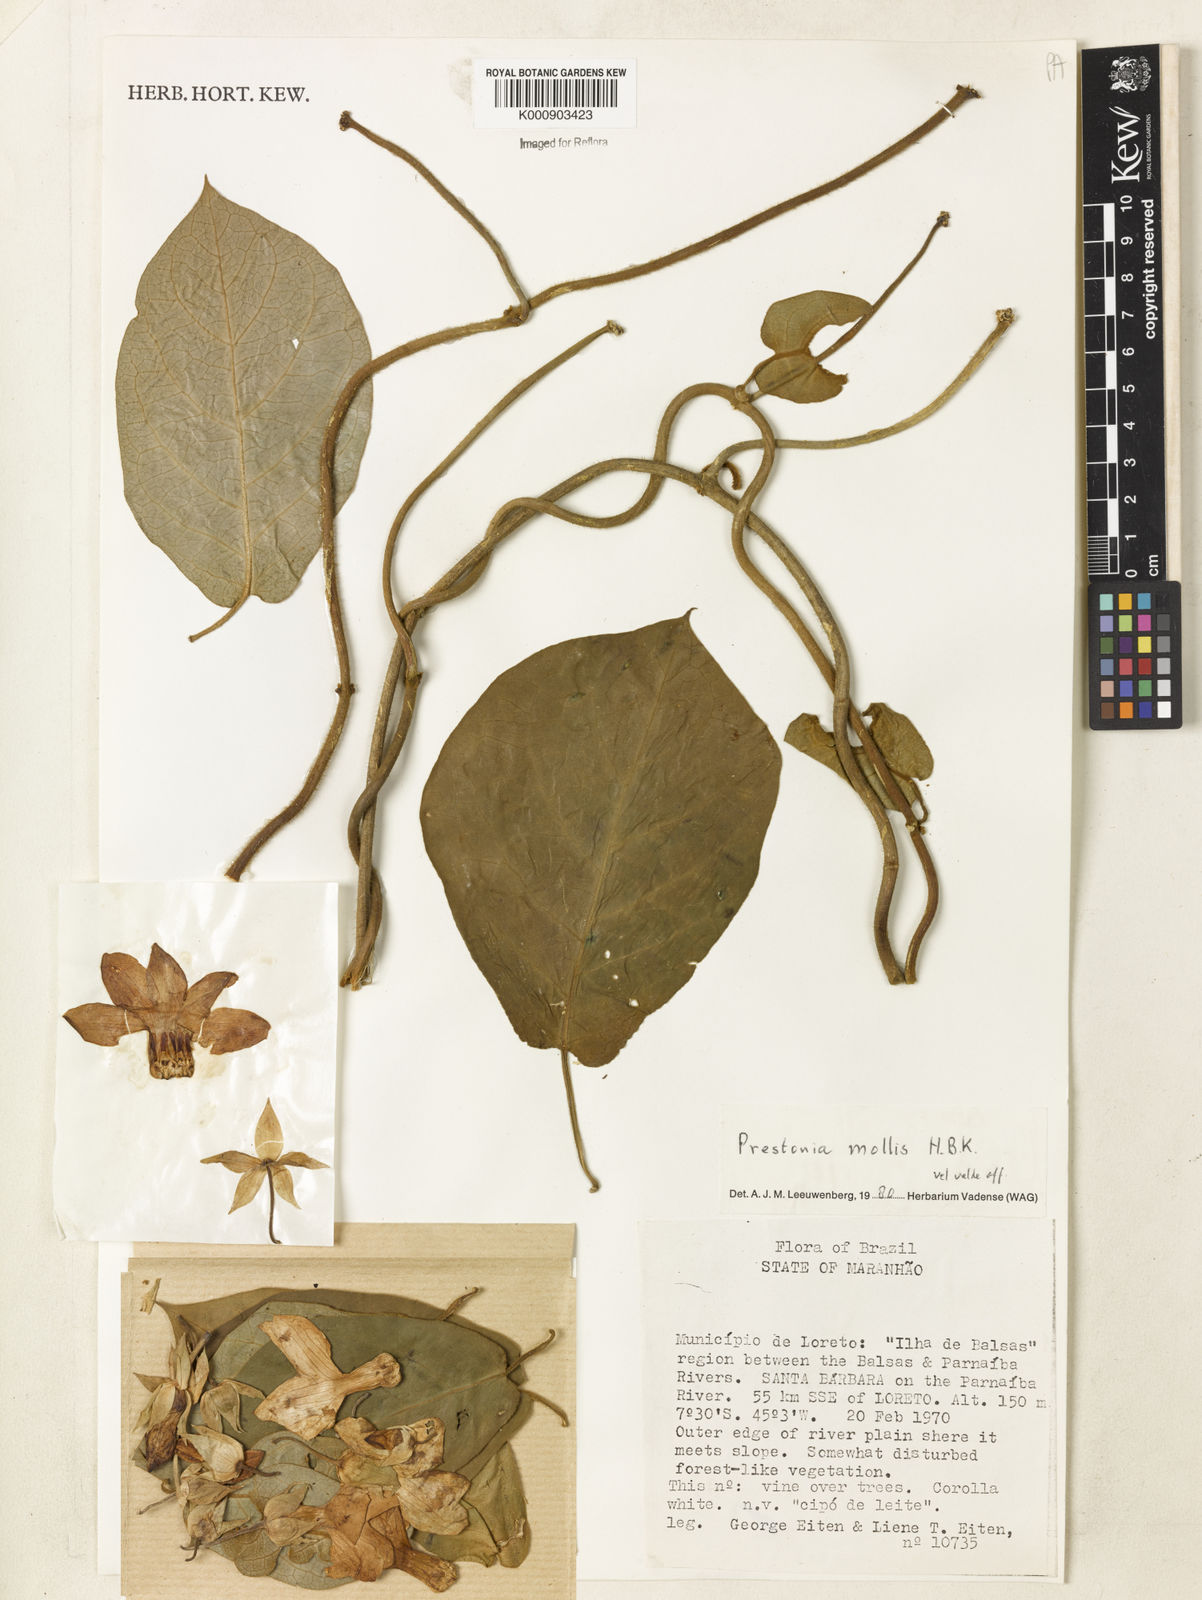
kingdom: Plantae
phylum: Tracheophyta
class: Magnoliopsida
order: Gentianales
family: Apocynaceae
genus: Prestonia
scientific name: Prestonia mollis
